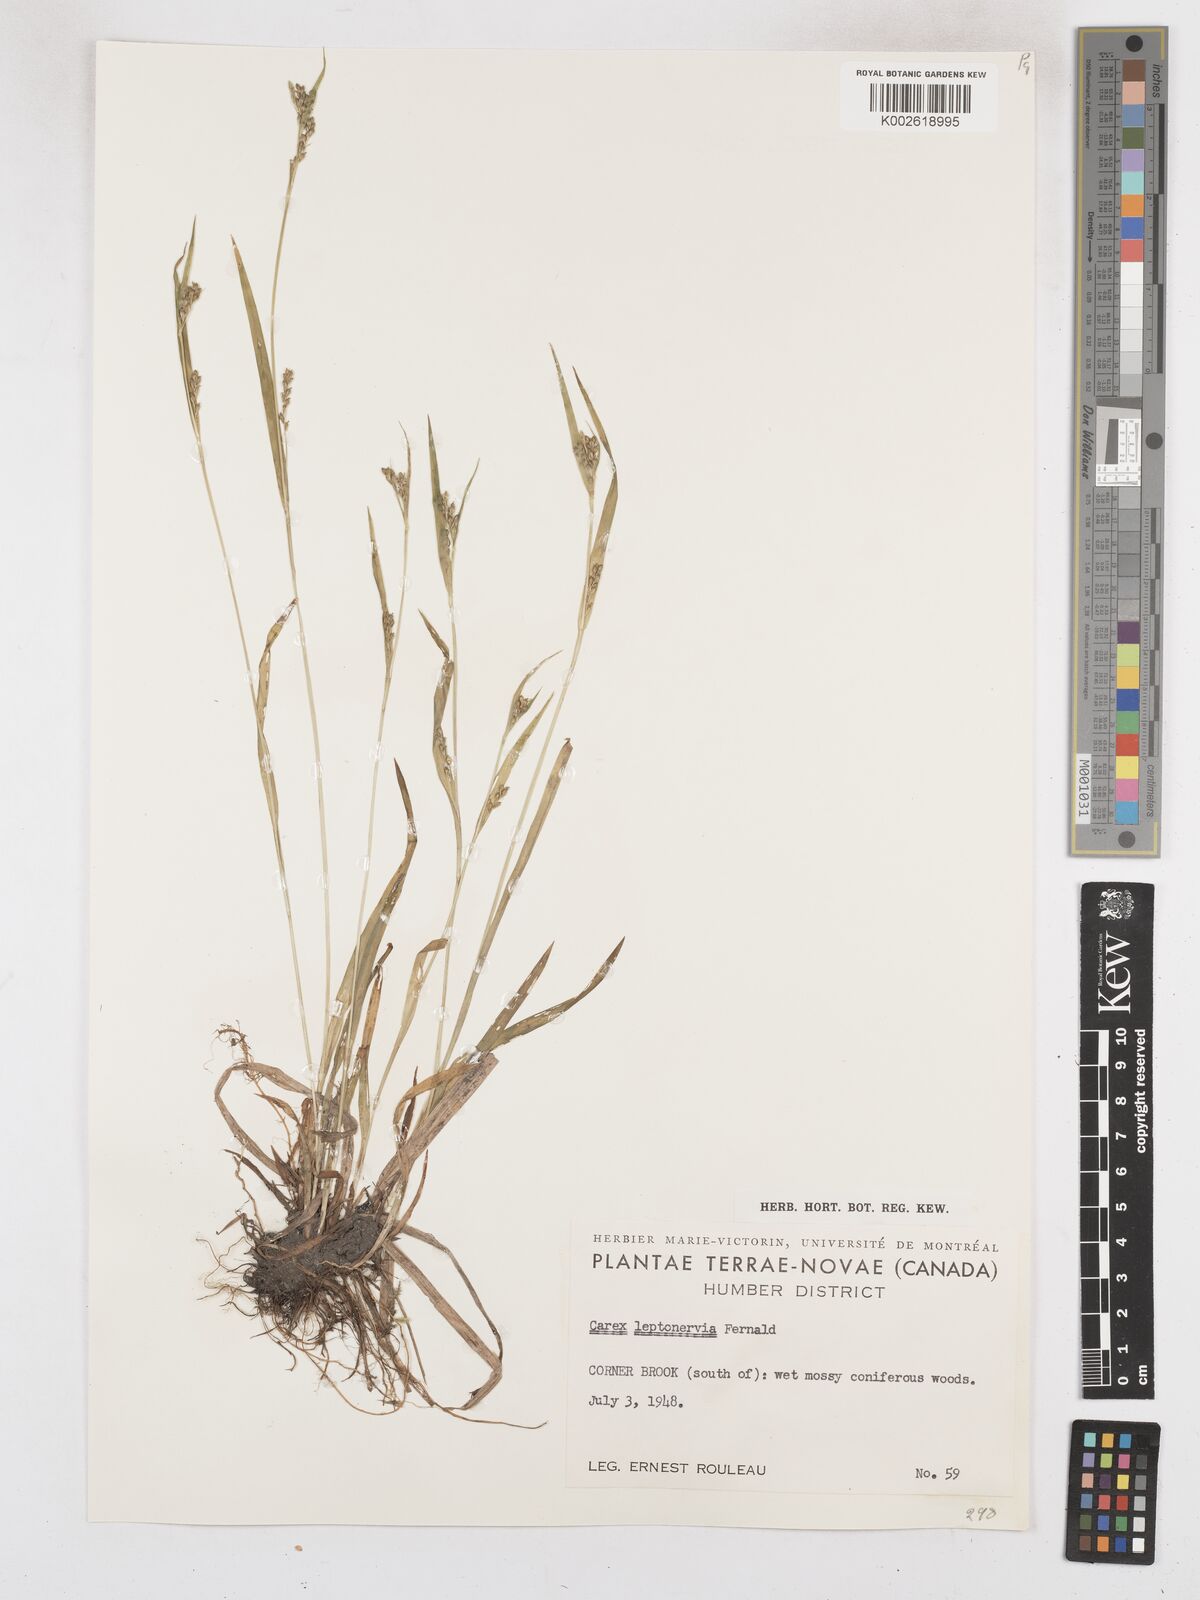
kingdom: Plantae
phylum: Tracheophyta
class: Liliopsida
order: Poales
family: Cyperaceae
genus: Carex
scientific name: Carex leptonervia
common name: Few-nerved wood sedge
